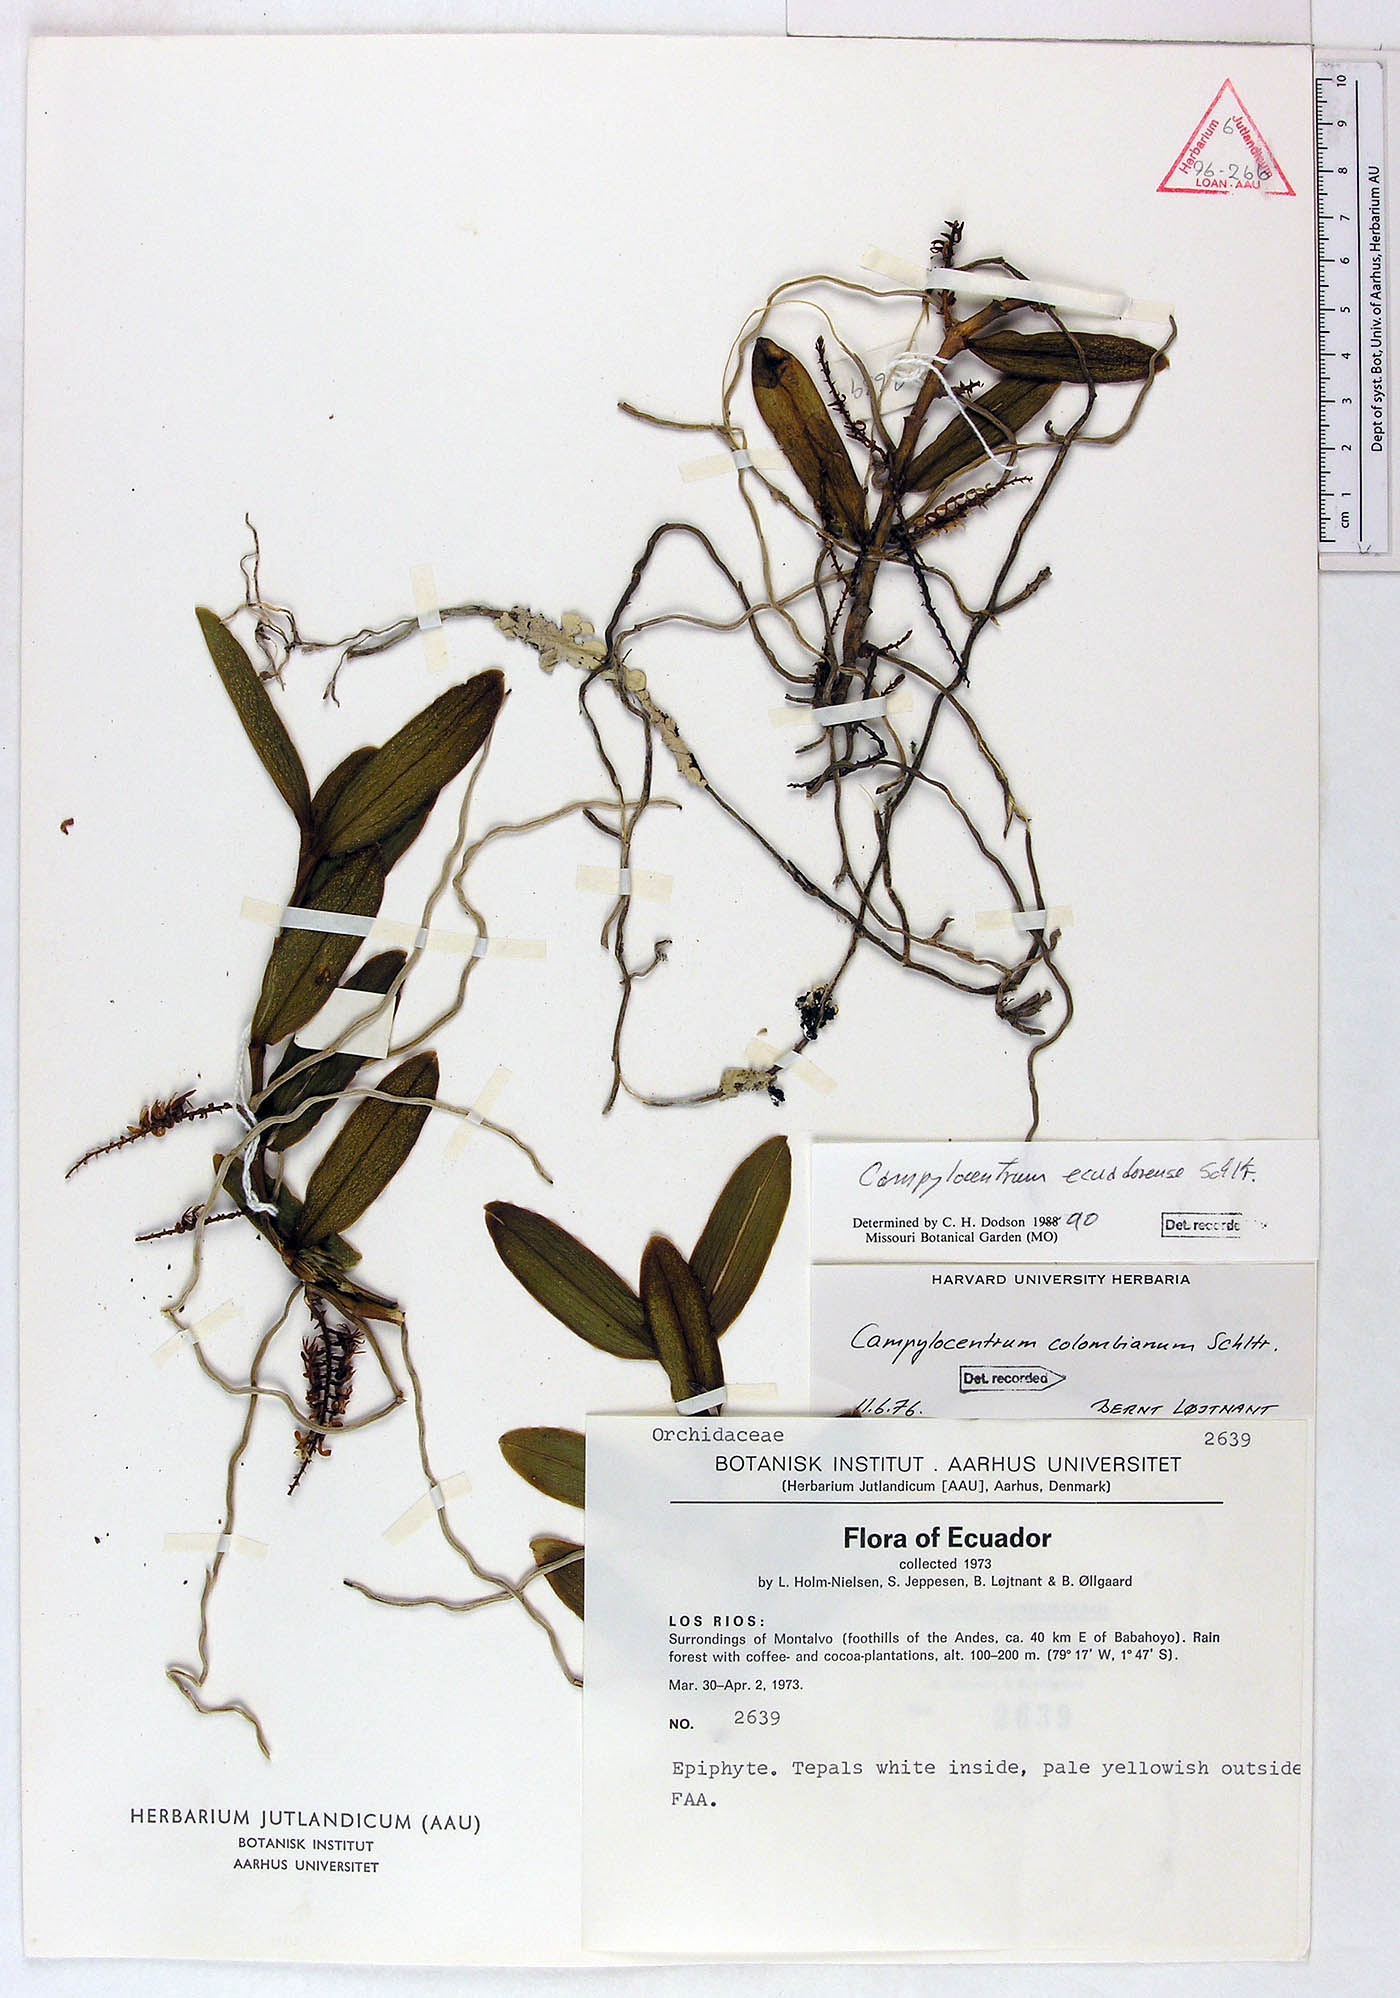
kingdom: Plantae
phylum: Tracheophyta
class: Liliopsida
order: Asparagales
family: Orchidaceae
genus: Campylocentrum
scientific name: Campylocentrum ecuadorense
